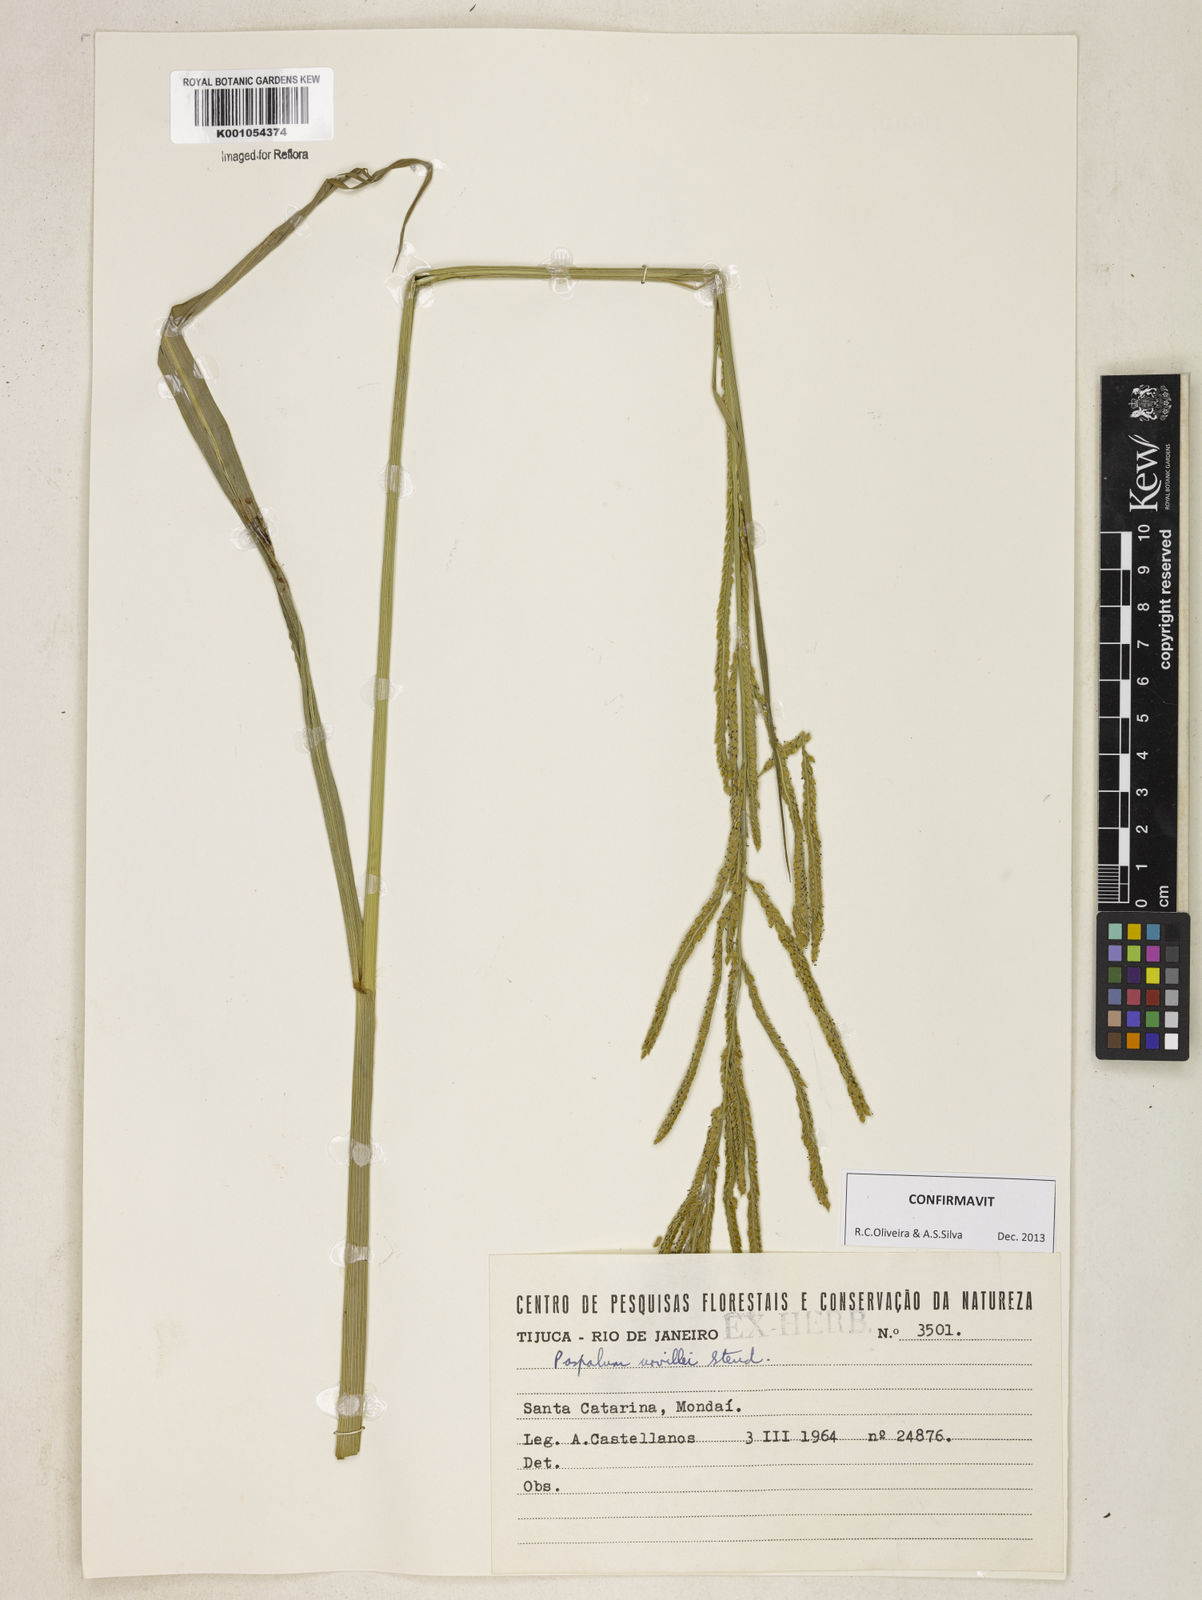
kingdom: Plantae
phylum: Tracheophyta
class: Liliopsida
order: Poales
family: Poaceae
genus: Paspalum
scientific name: Paspalum urvillei
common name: Vasey's grass
